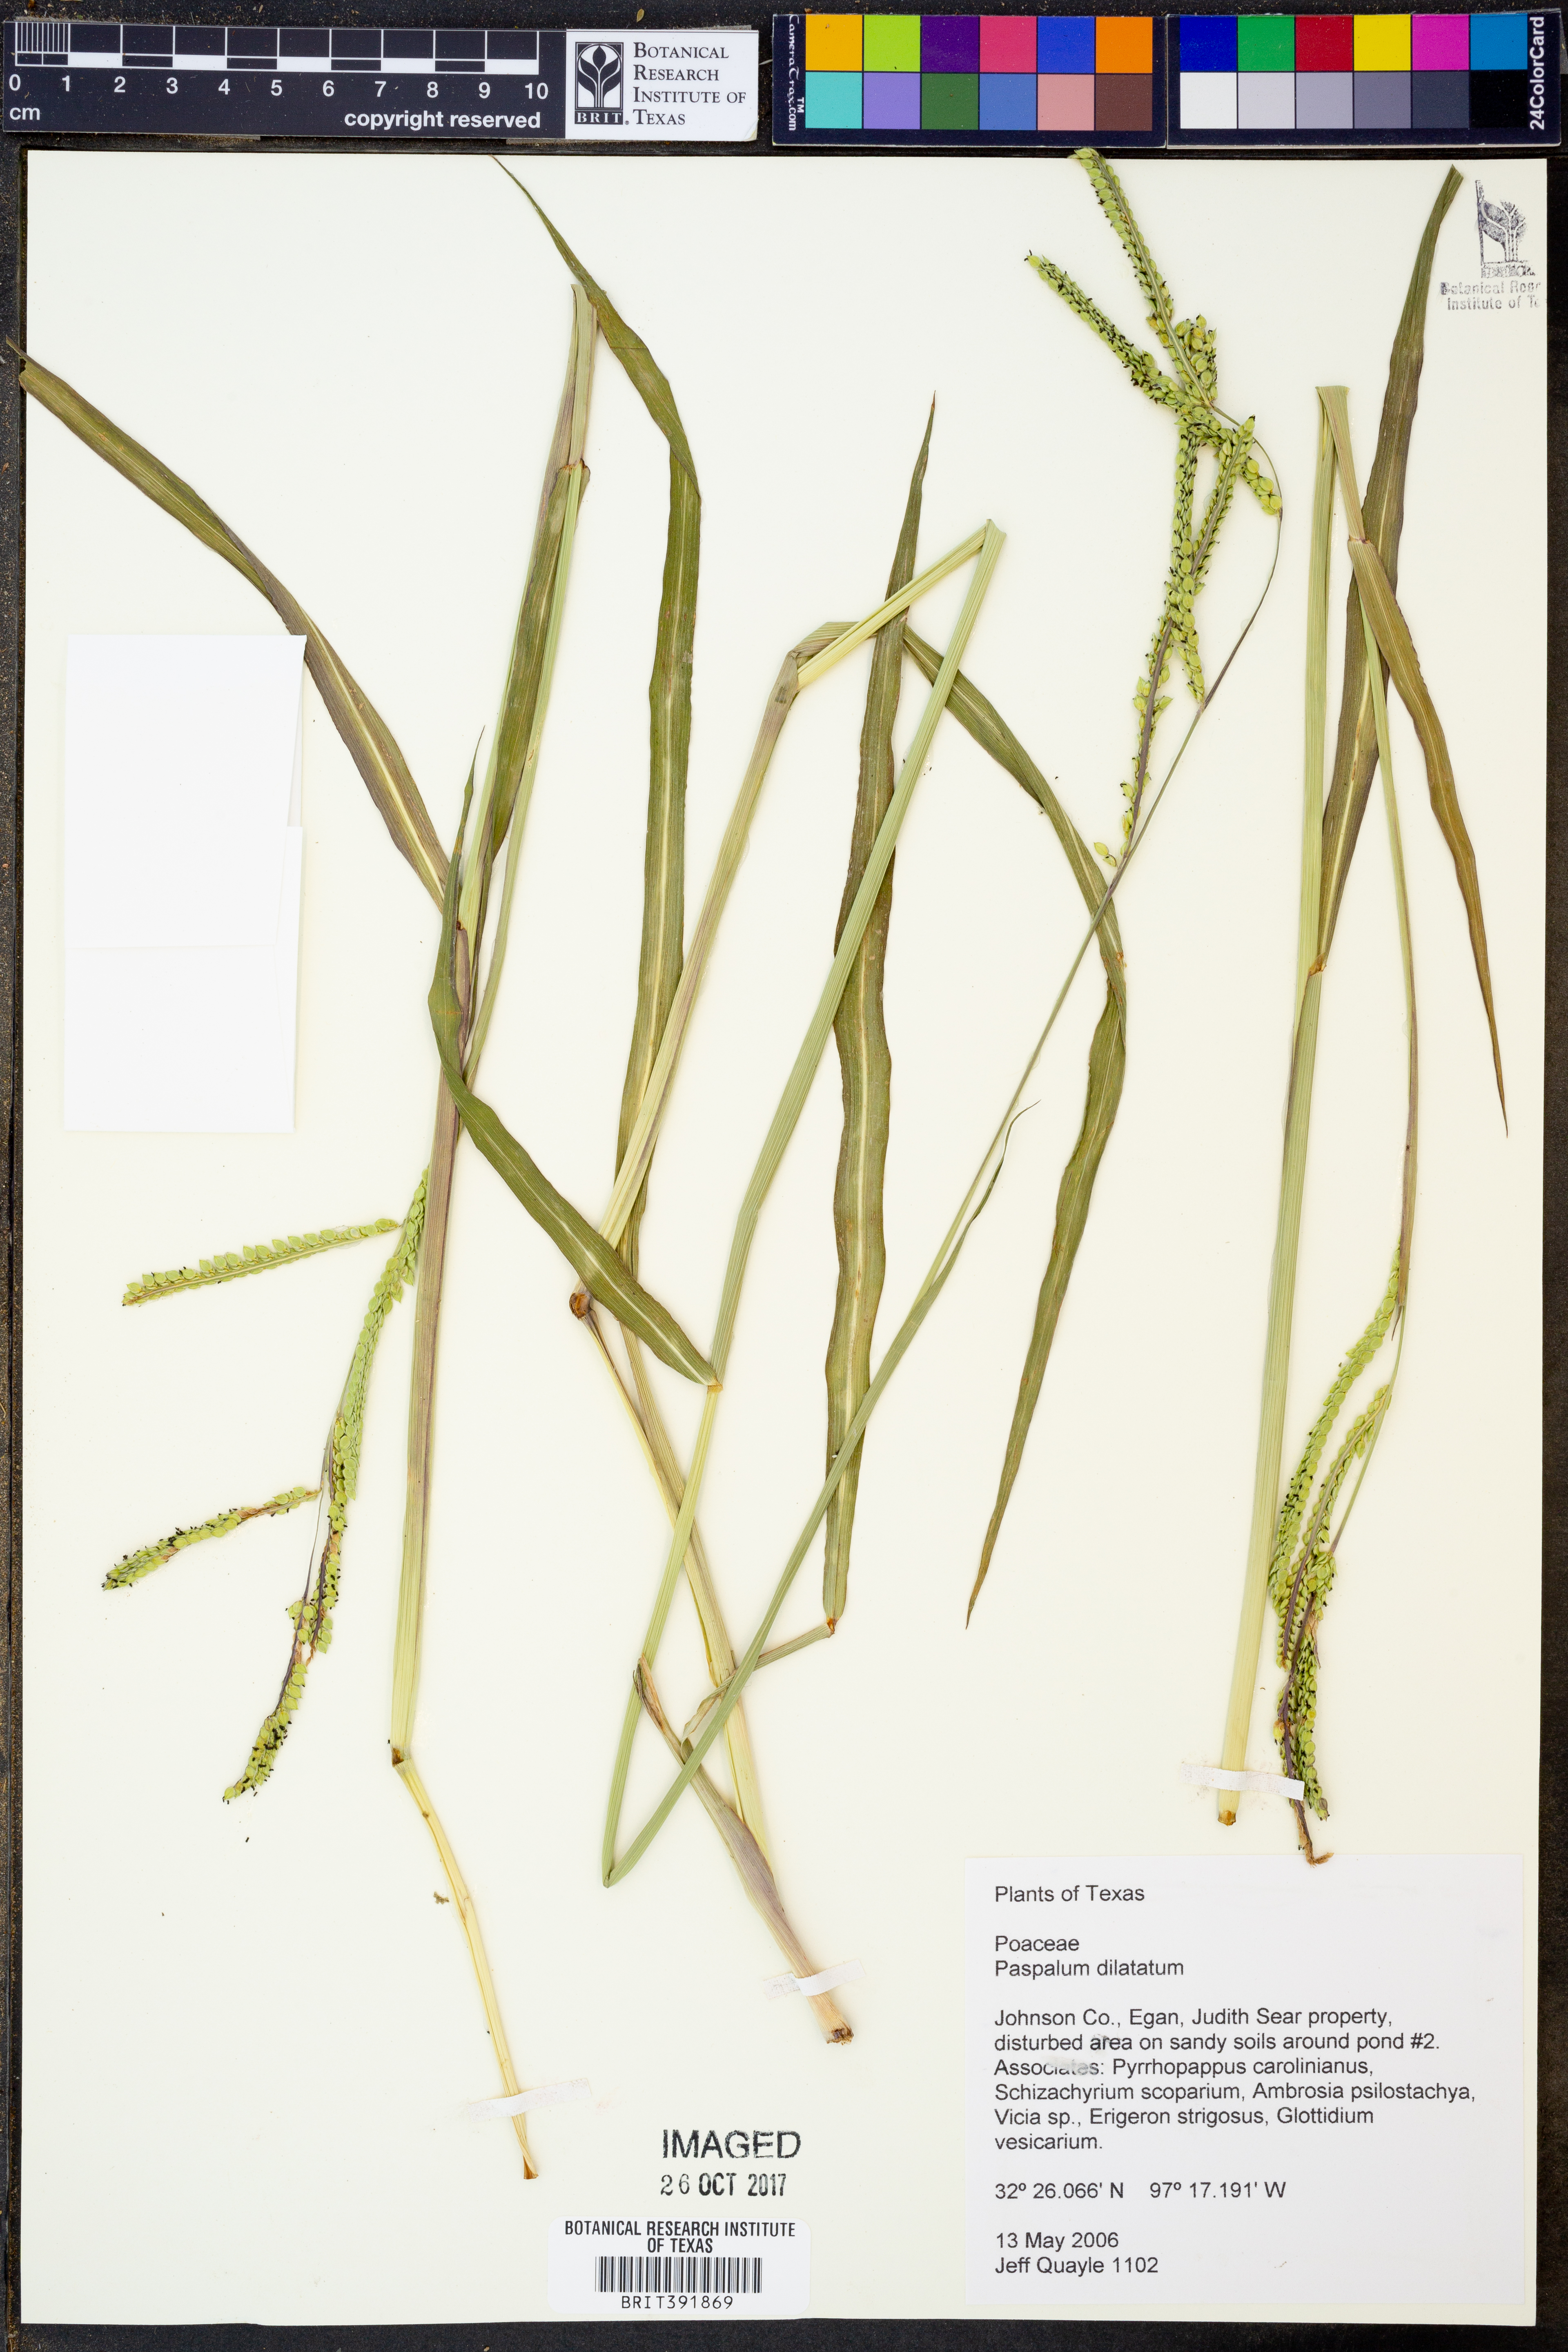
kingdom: Plantae
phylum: Tracheophyta
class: Liliopsida
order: Poales
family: Poaceae
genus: Paspalum
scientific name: Paspalum dilatatum
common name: Dallisgrass
